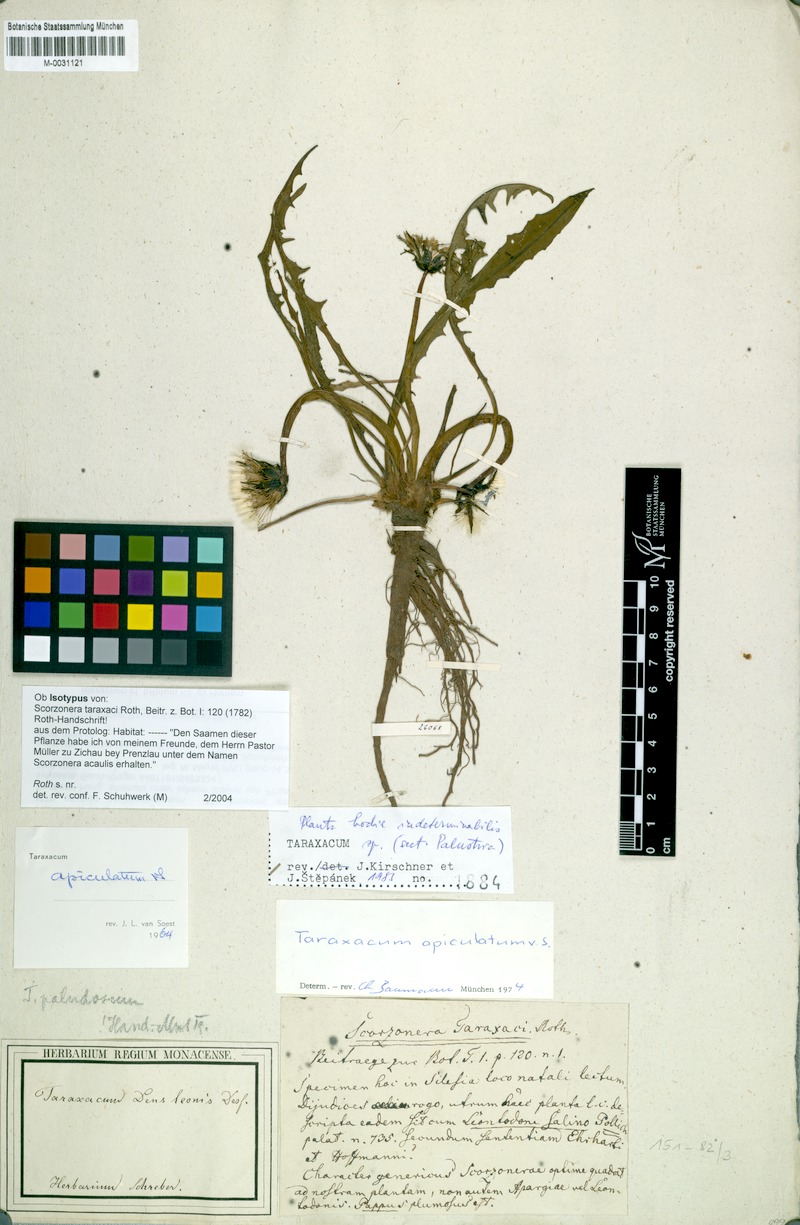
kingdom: Plantae
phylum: Tracheophyta
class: Magnoliopsida
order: Asterales
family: Asteraceae
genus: Taraxacum
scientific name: Taraxacum apiculatum
